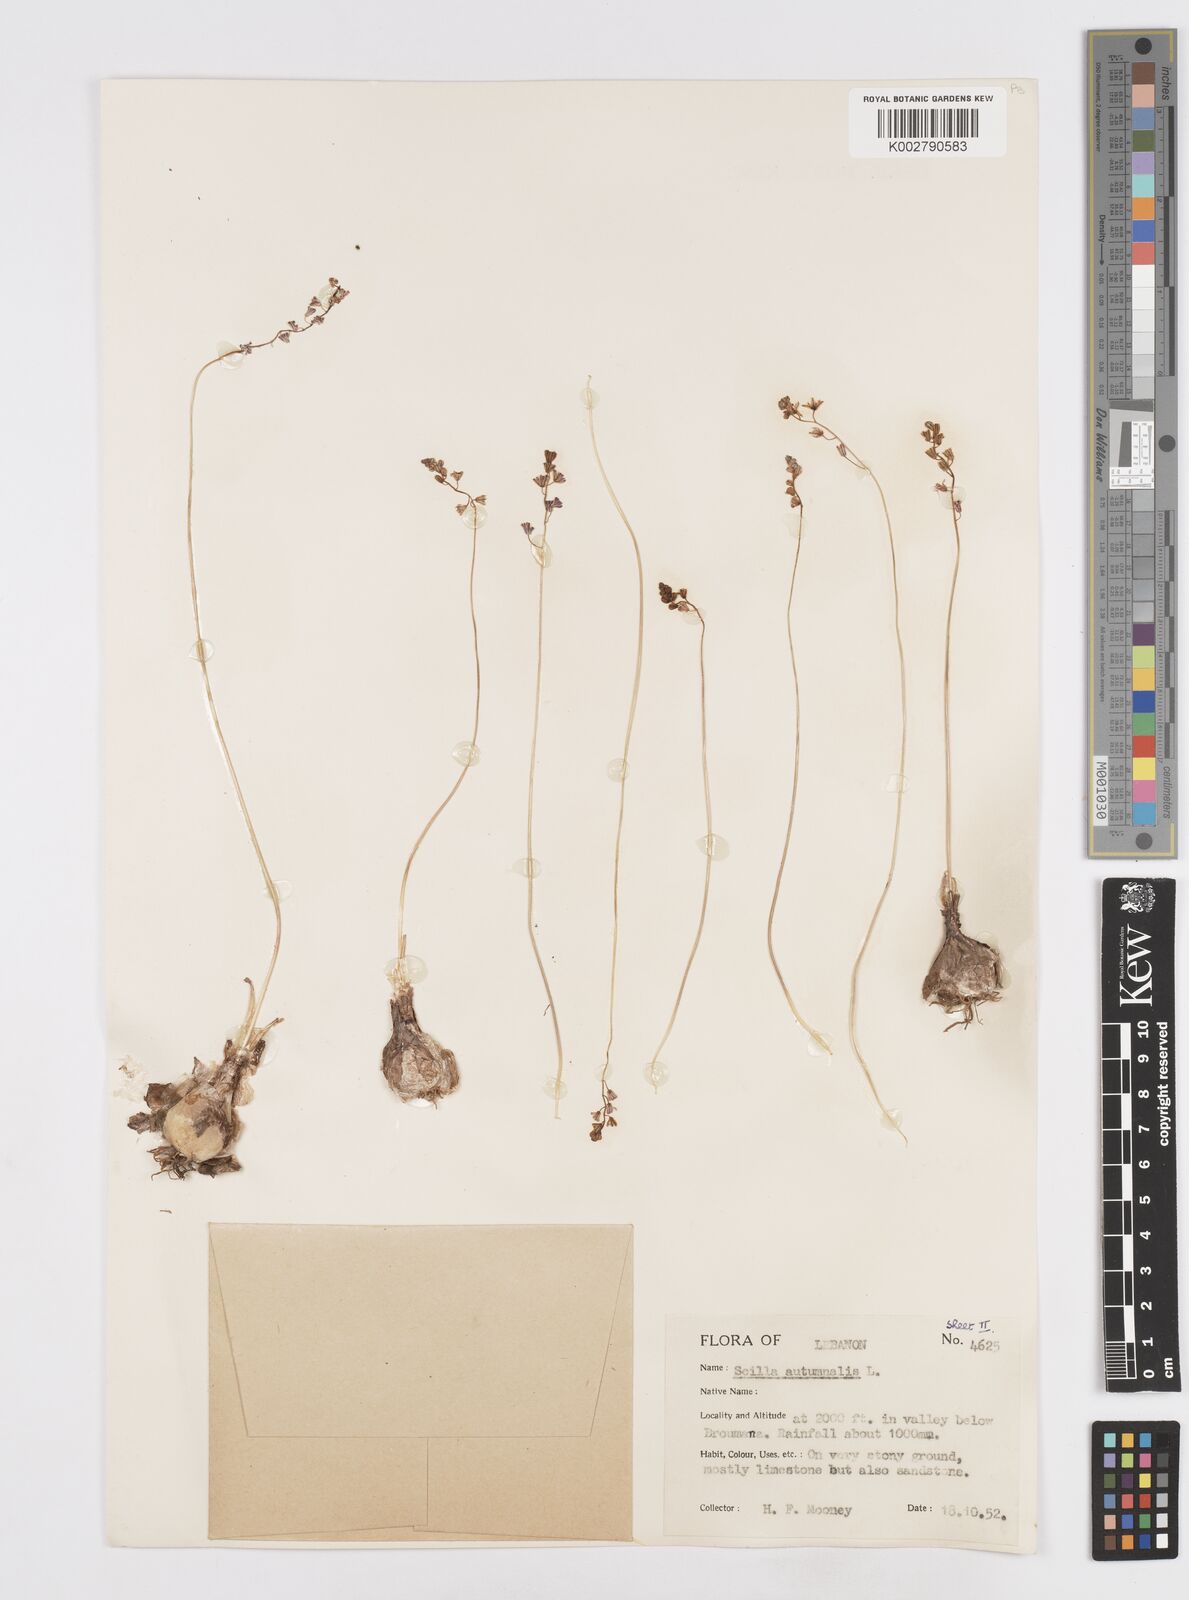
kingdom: Plantae
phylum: Tracheophyta
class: Liliopsida
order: Asparagales
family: Asparagaceae
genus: Prospero
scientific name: Prospero autumnale
